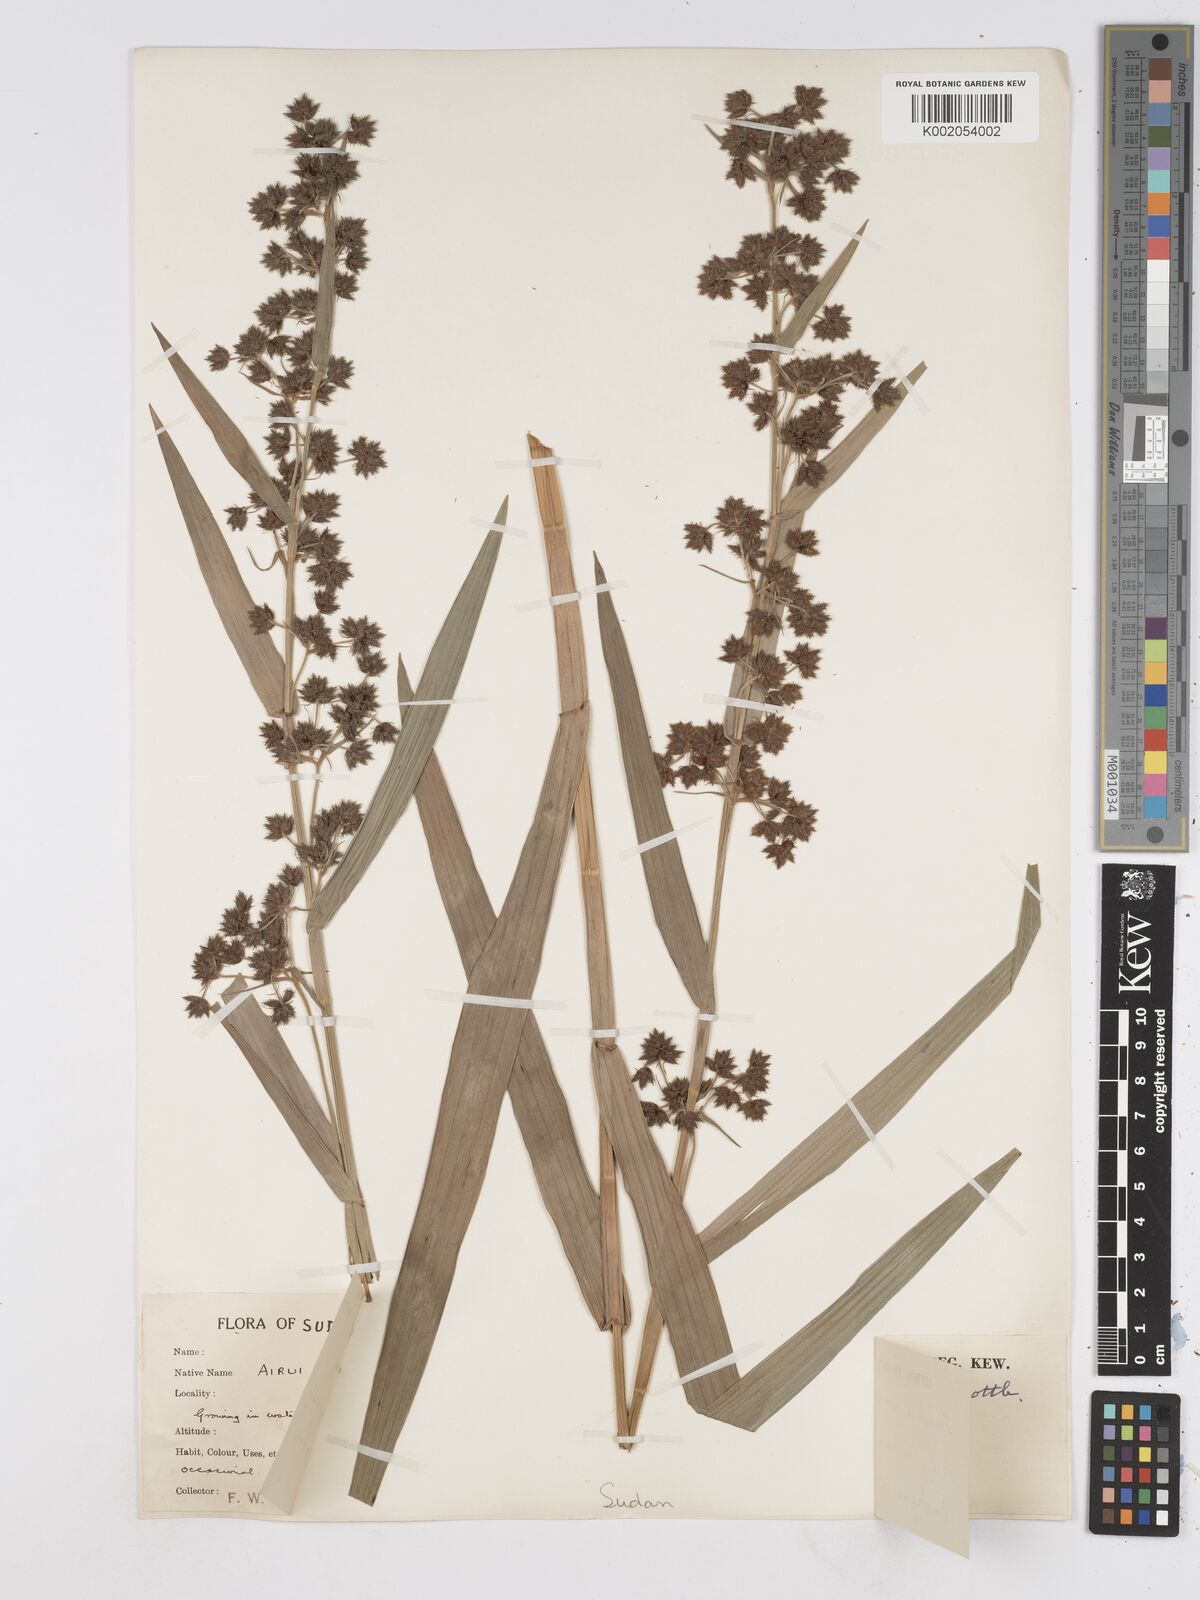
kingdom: Plantae
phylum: Tracheophyta
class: Liliopsida
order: Poales
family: Cyperaceae
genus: Fuirena
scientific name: Fuirena umbellata
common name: Yefen
